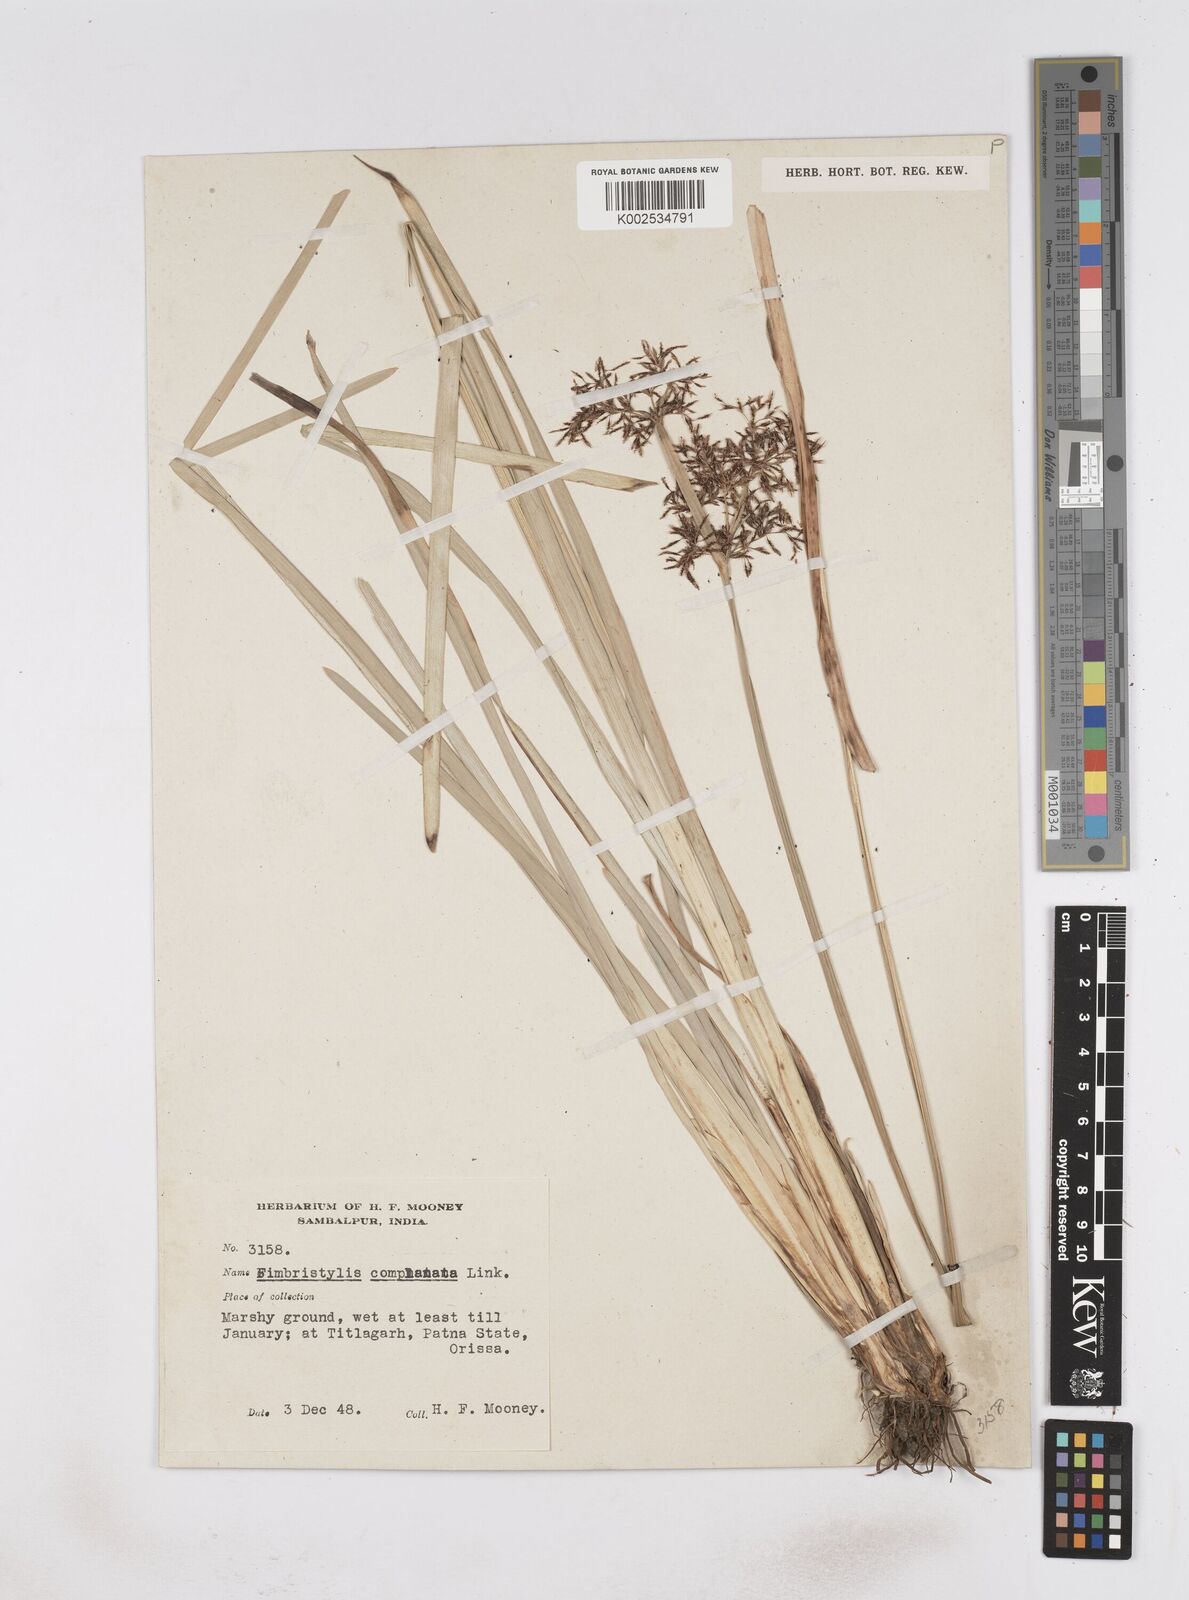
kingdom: Plantae
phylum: Tracheophyta
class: Liliopsida
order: Poales
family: Cyperaceae
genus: Fimbristylis
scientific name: Fimbristylis complanata
